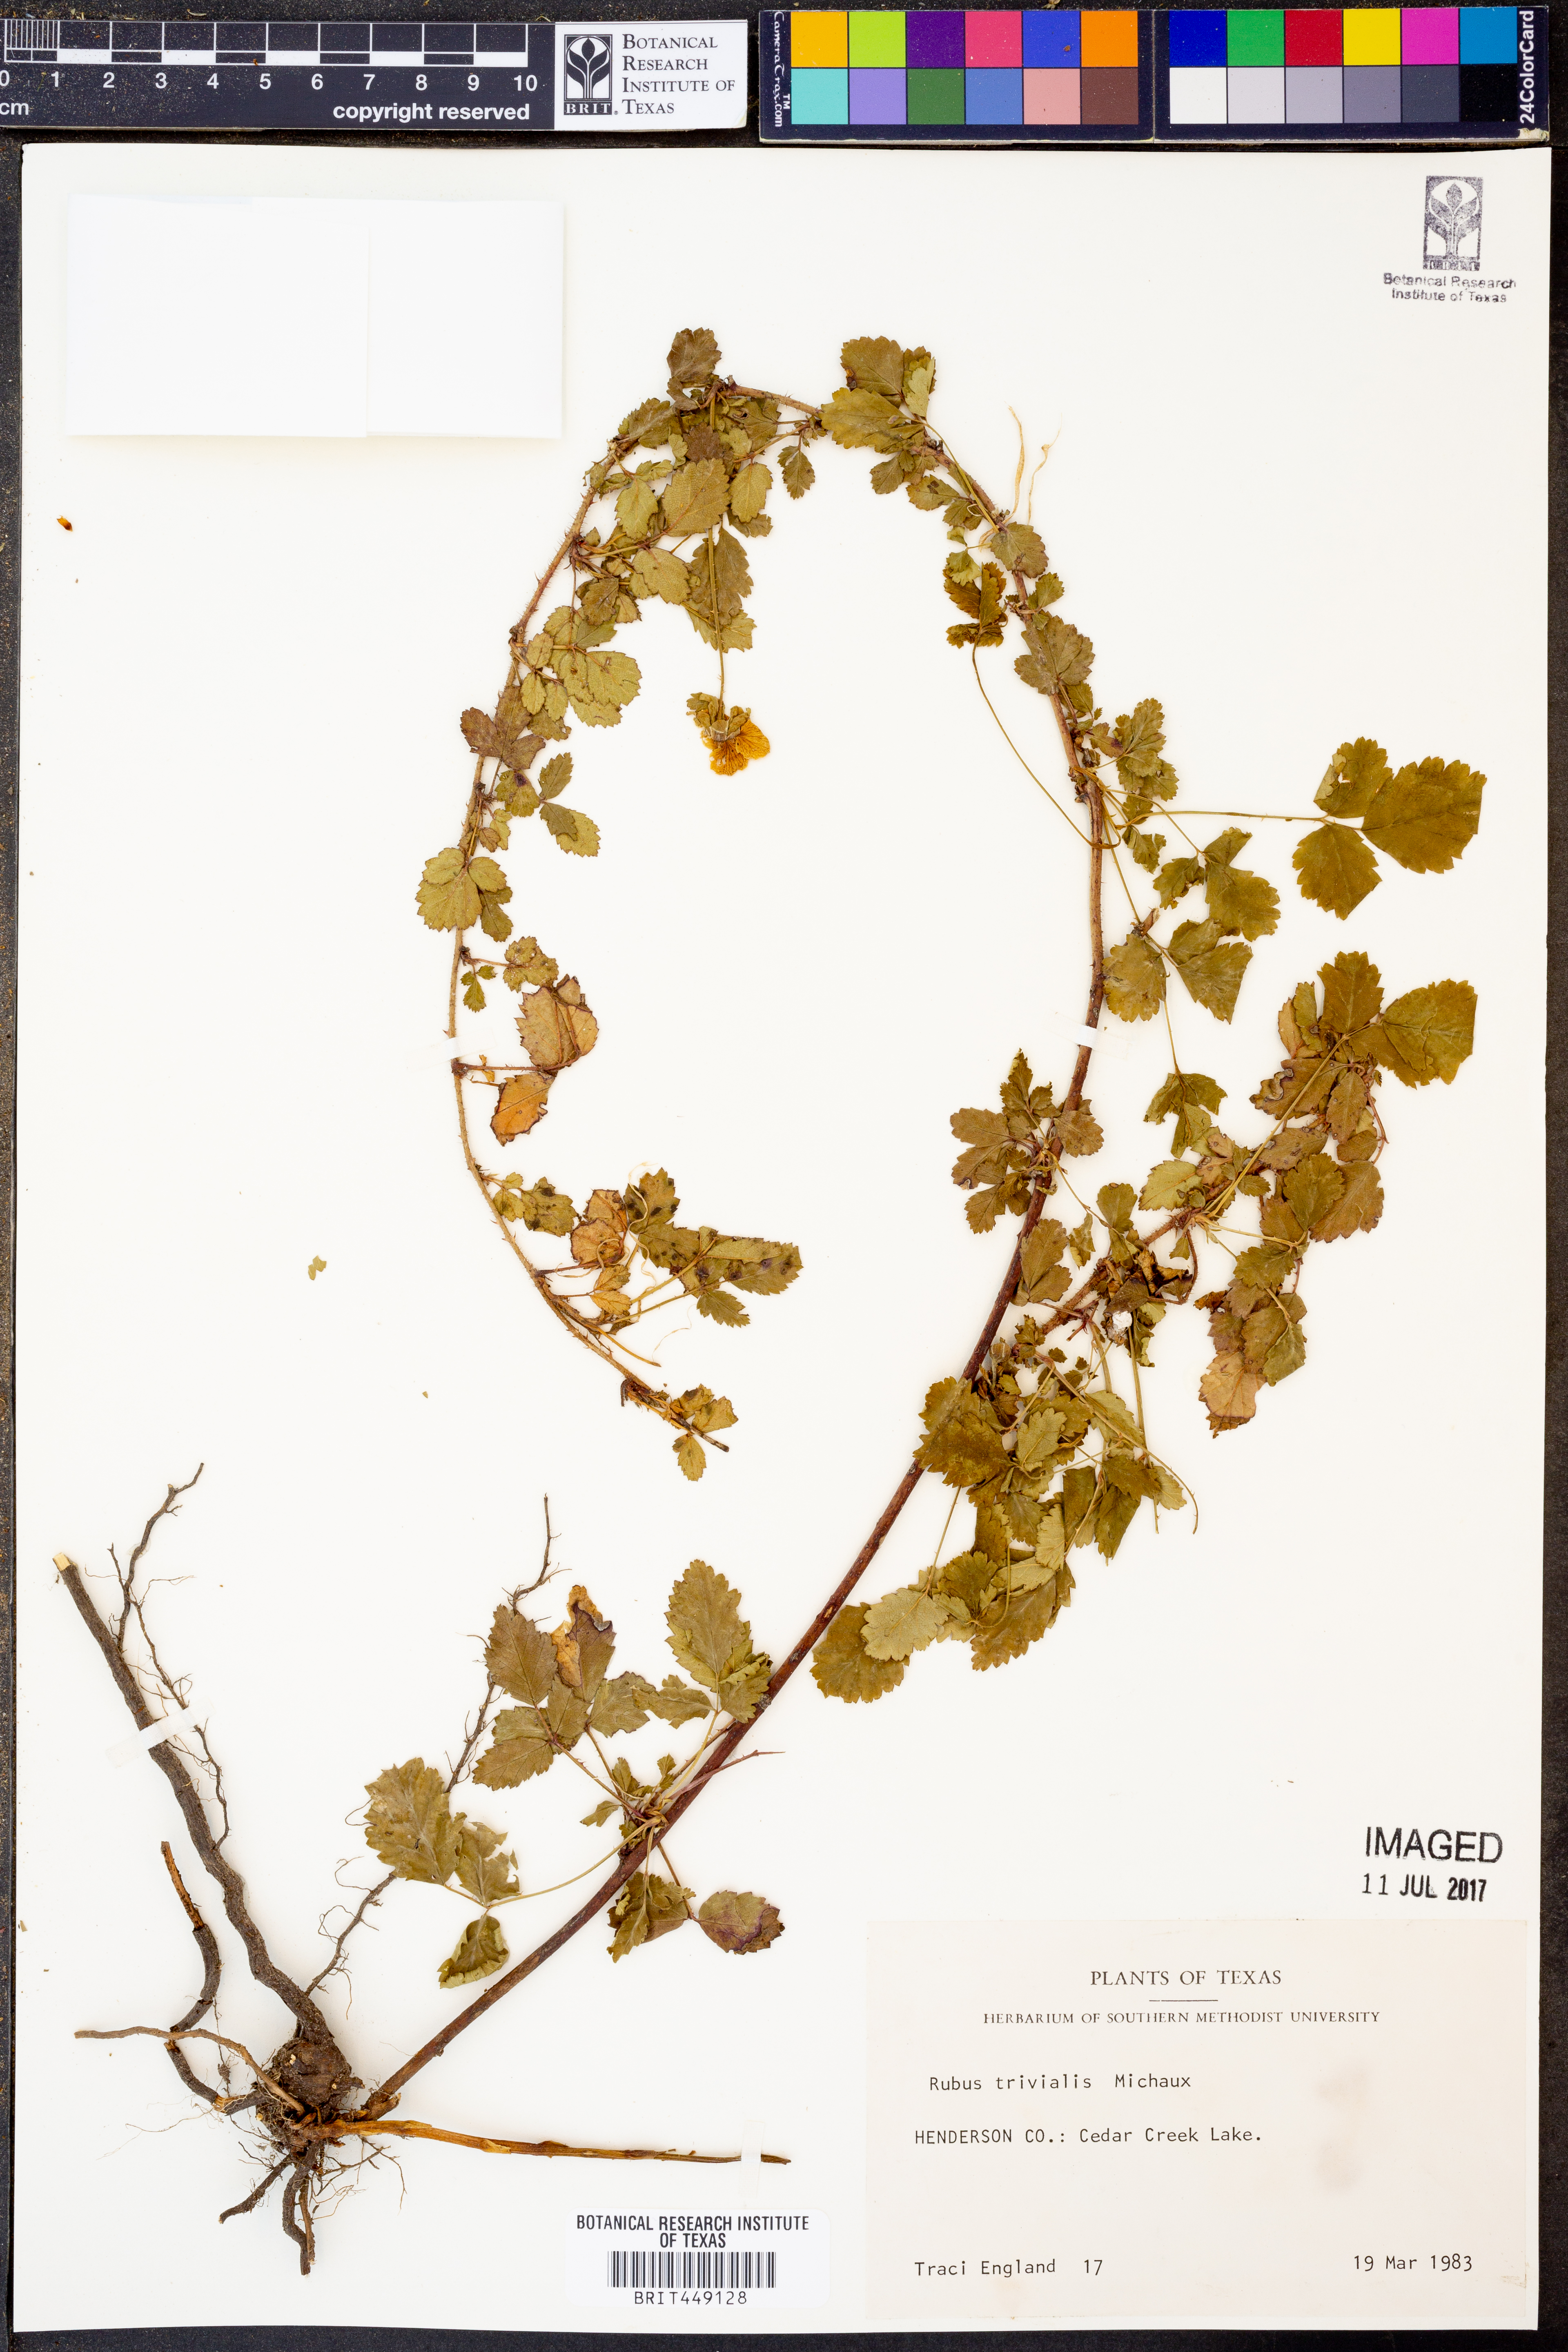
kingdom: Plantae
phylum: Tracheophyta
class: Magnoliopsida
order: Rosales
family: Rosaceae
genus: Rubus
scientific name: Rubus trivialis
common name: Southern dewberry
